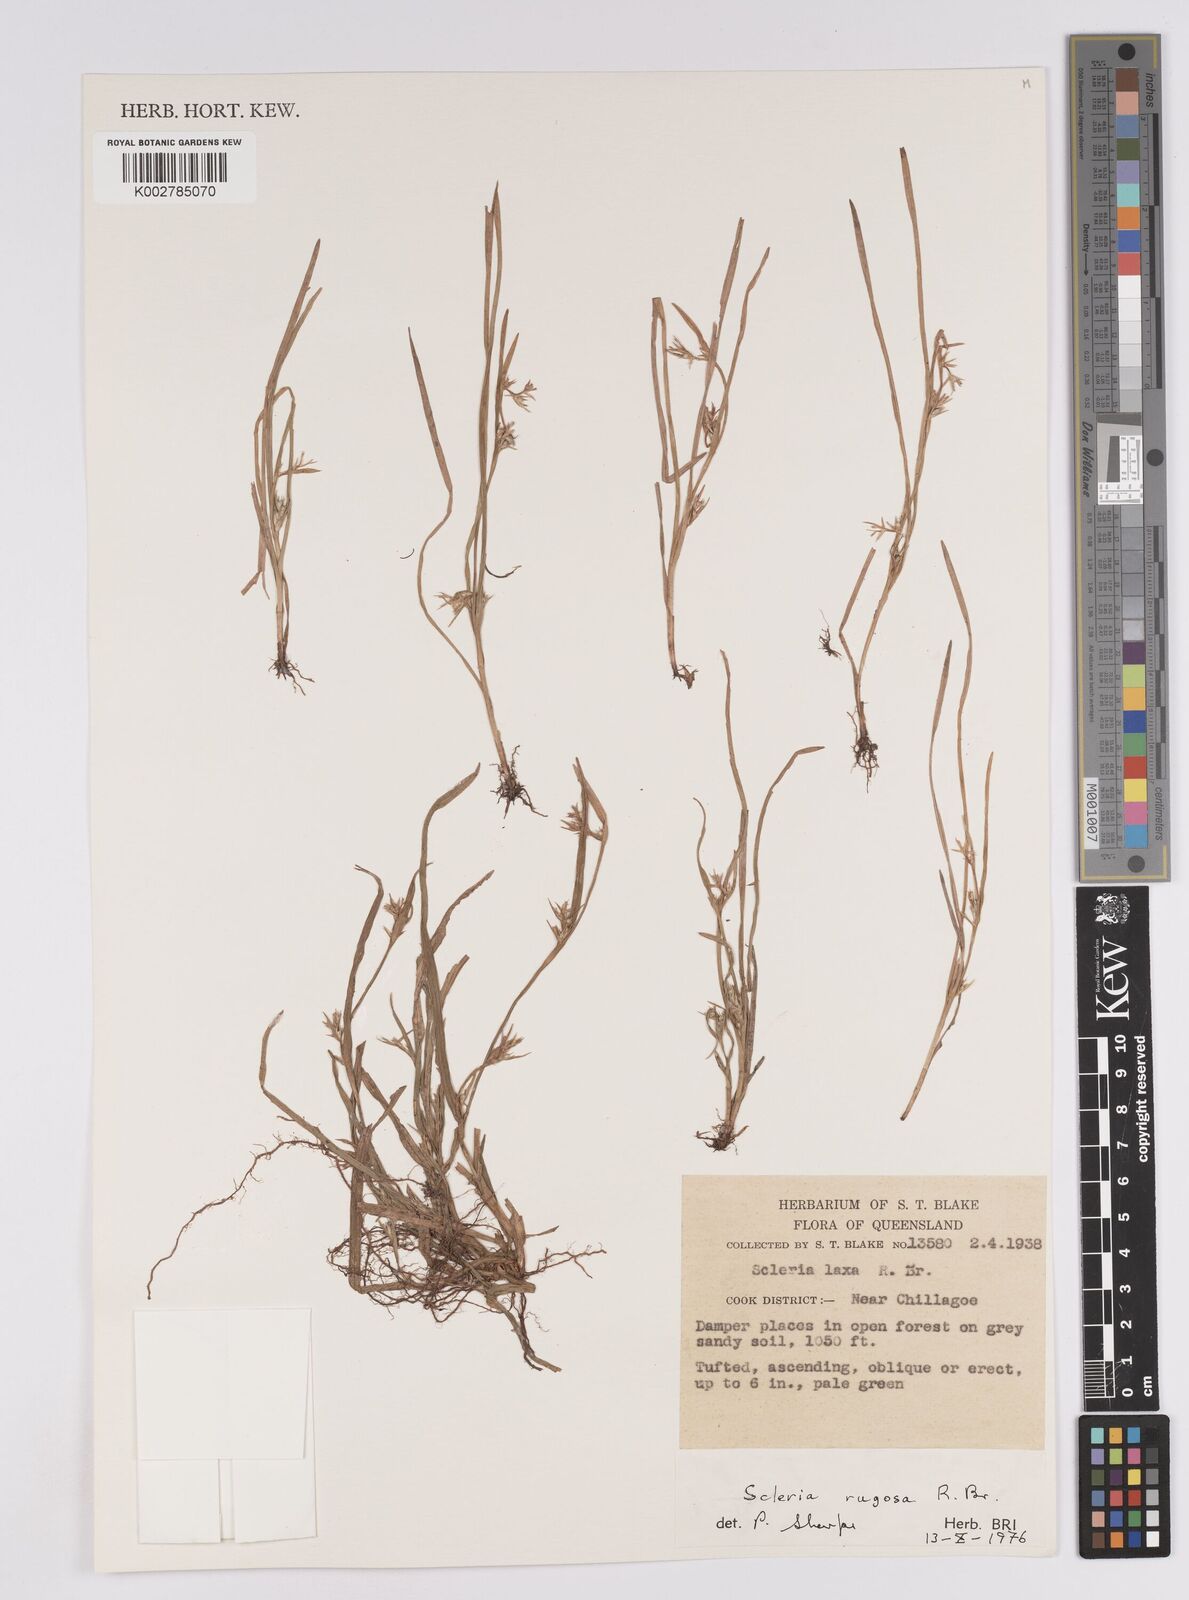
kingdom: Plantae
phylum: Tracheophyta
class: Liliopsida
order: Poales
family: Cyperaceae
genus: Scleria
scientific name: Scleria rugosa
